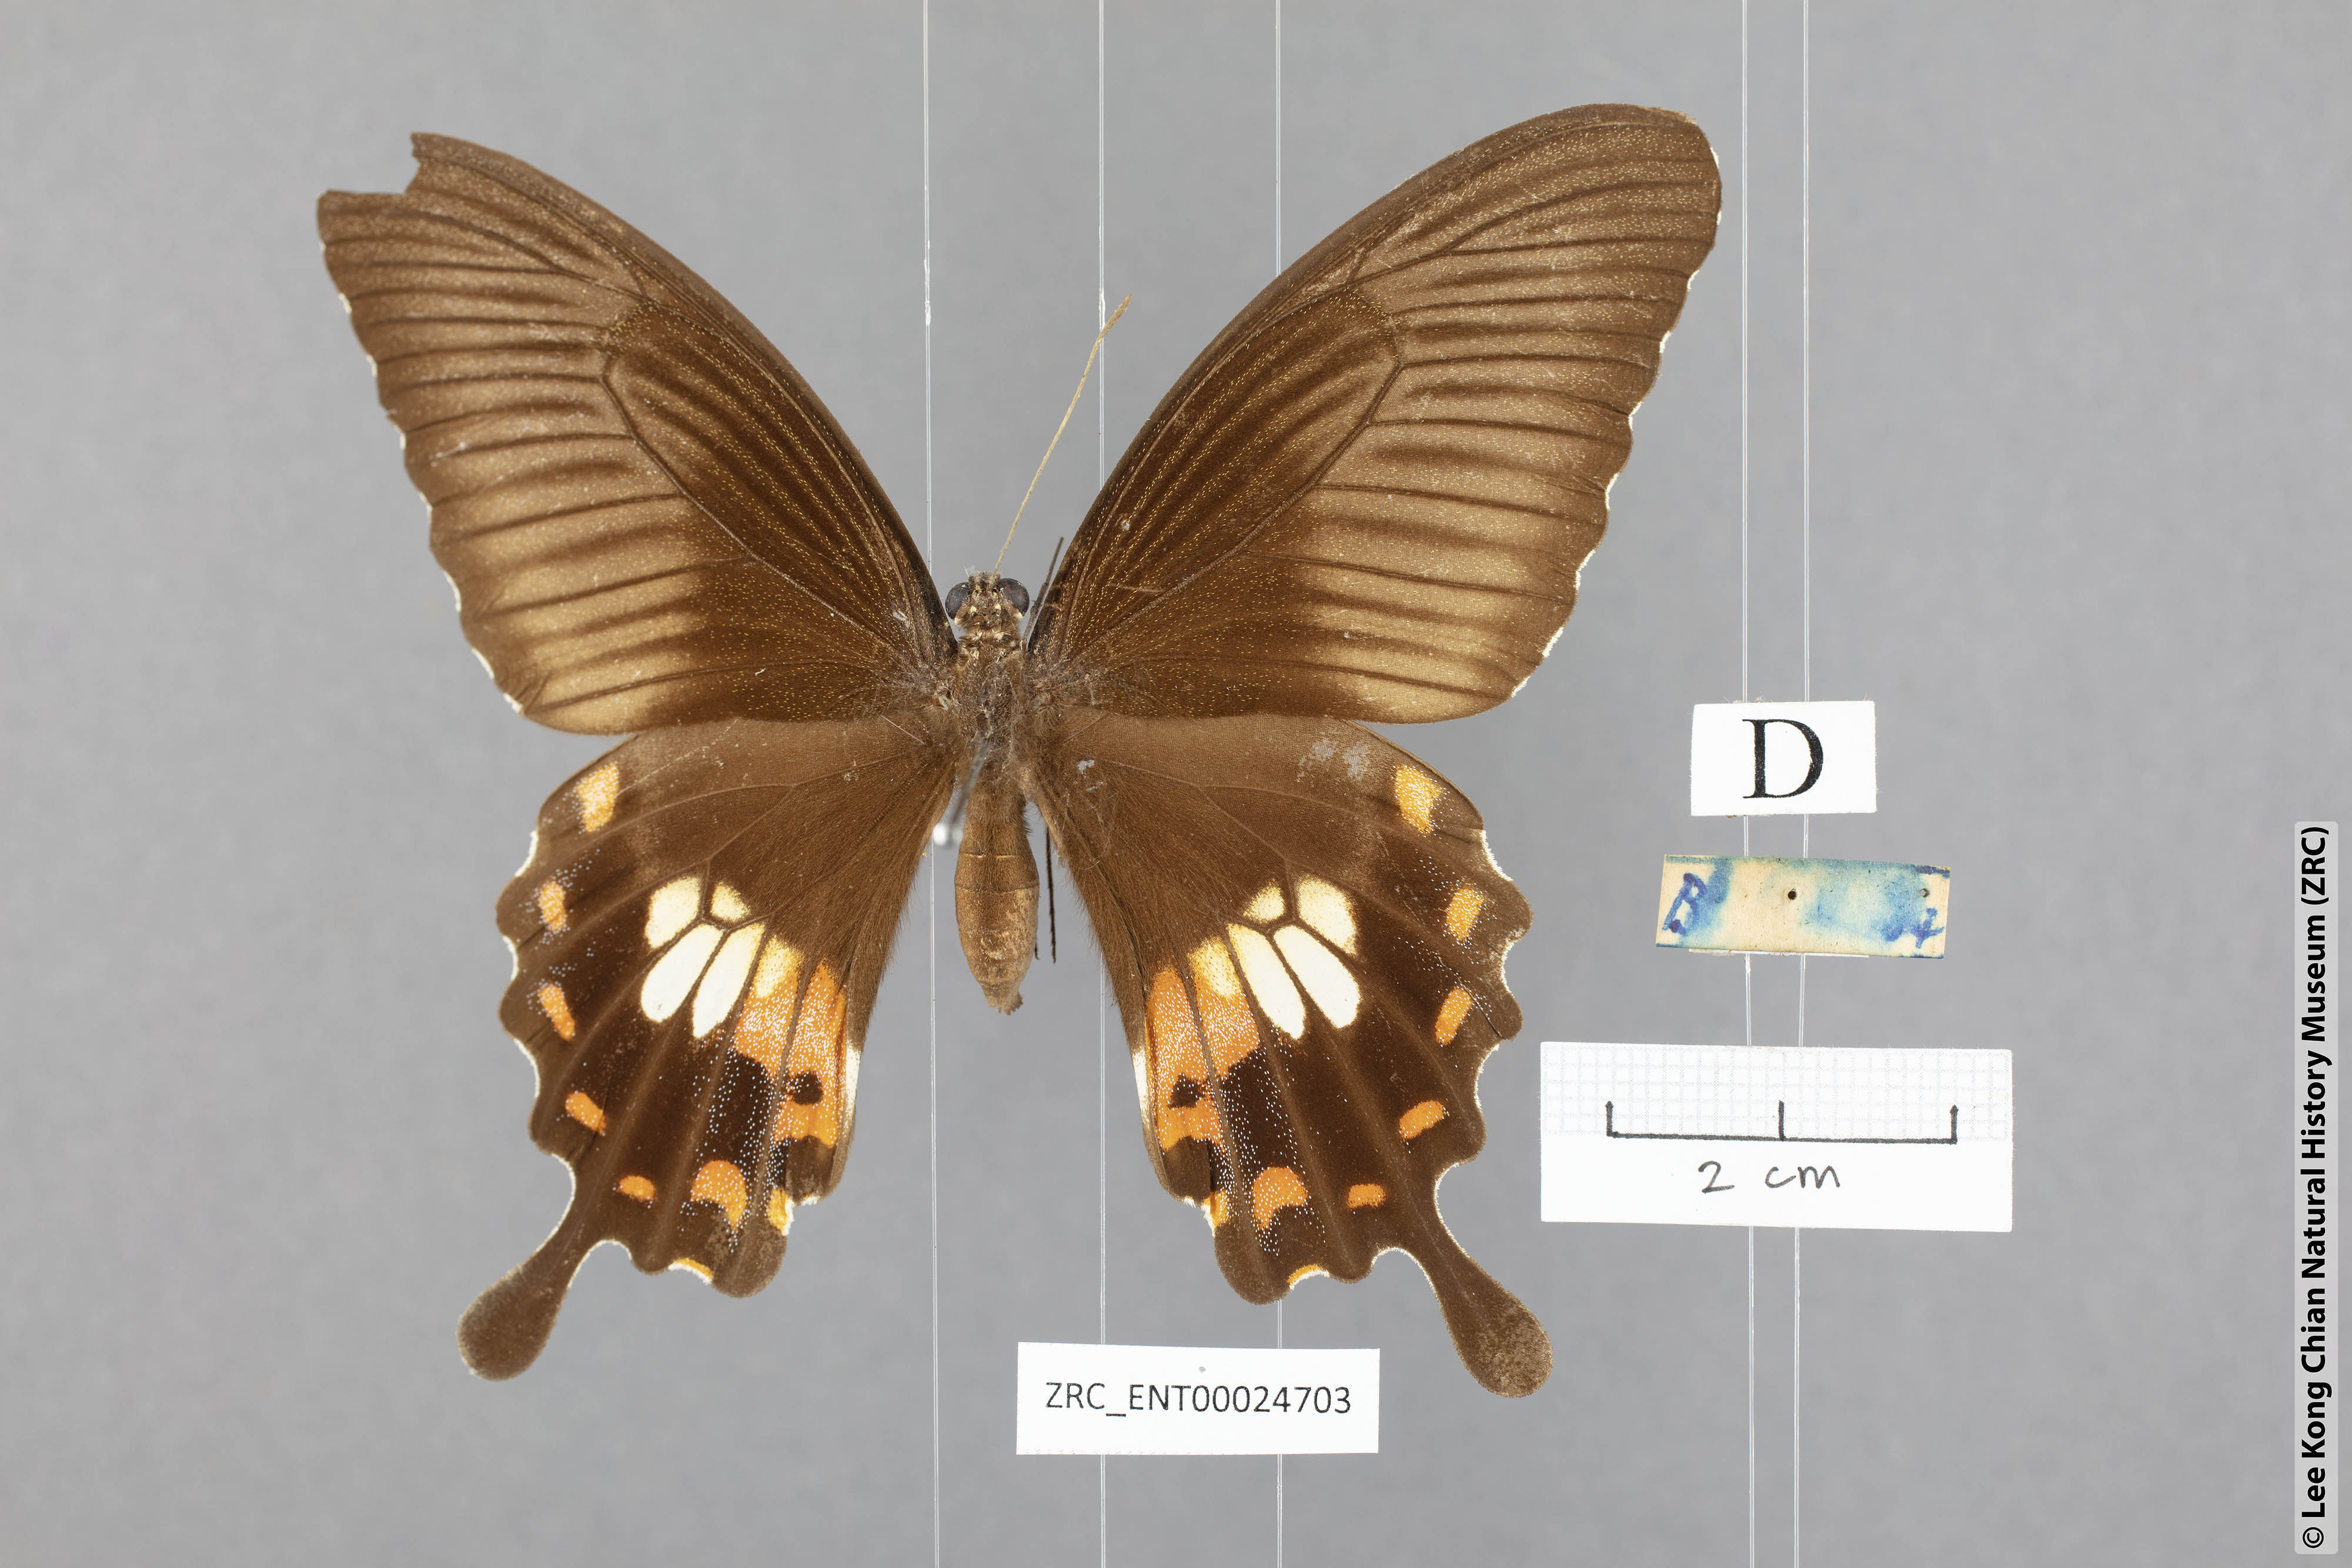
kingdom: Animalia
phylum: Arthropoda
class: Insecta
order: Lepidoptera
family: Papilionidae
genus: Papilio
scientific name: Papilio polytes
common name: Common mormon
